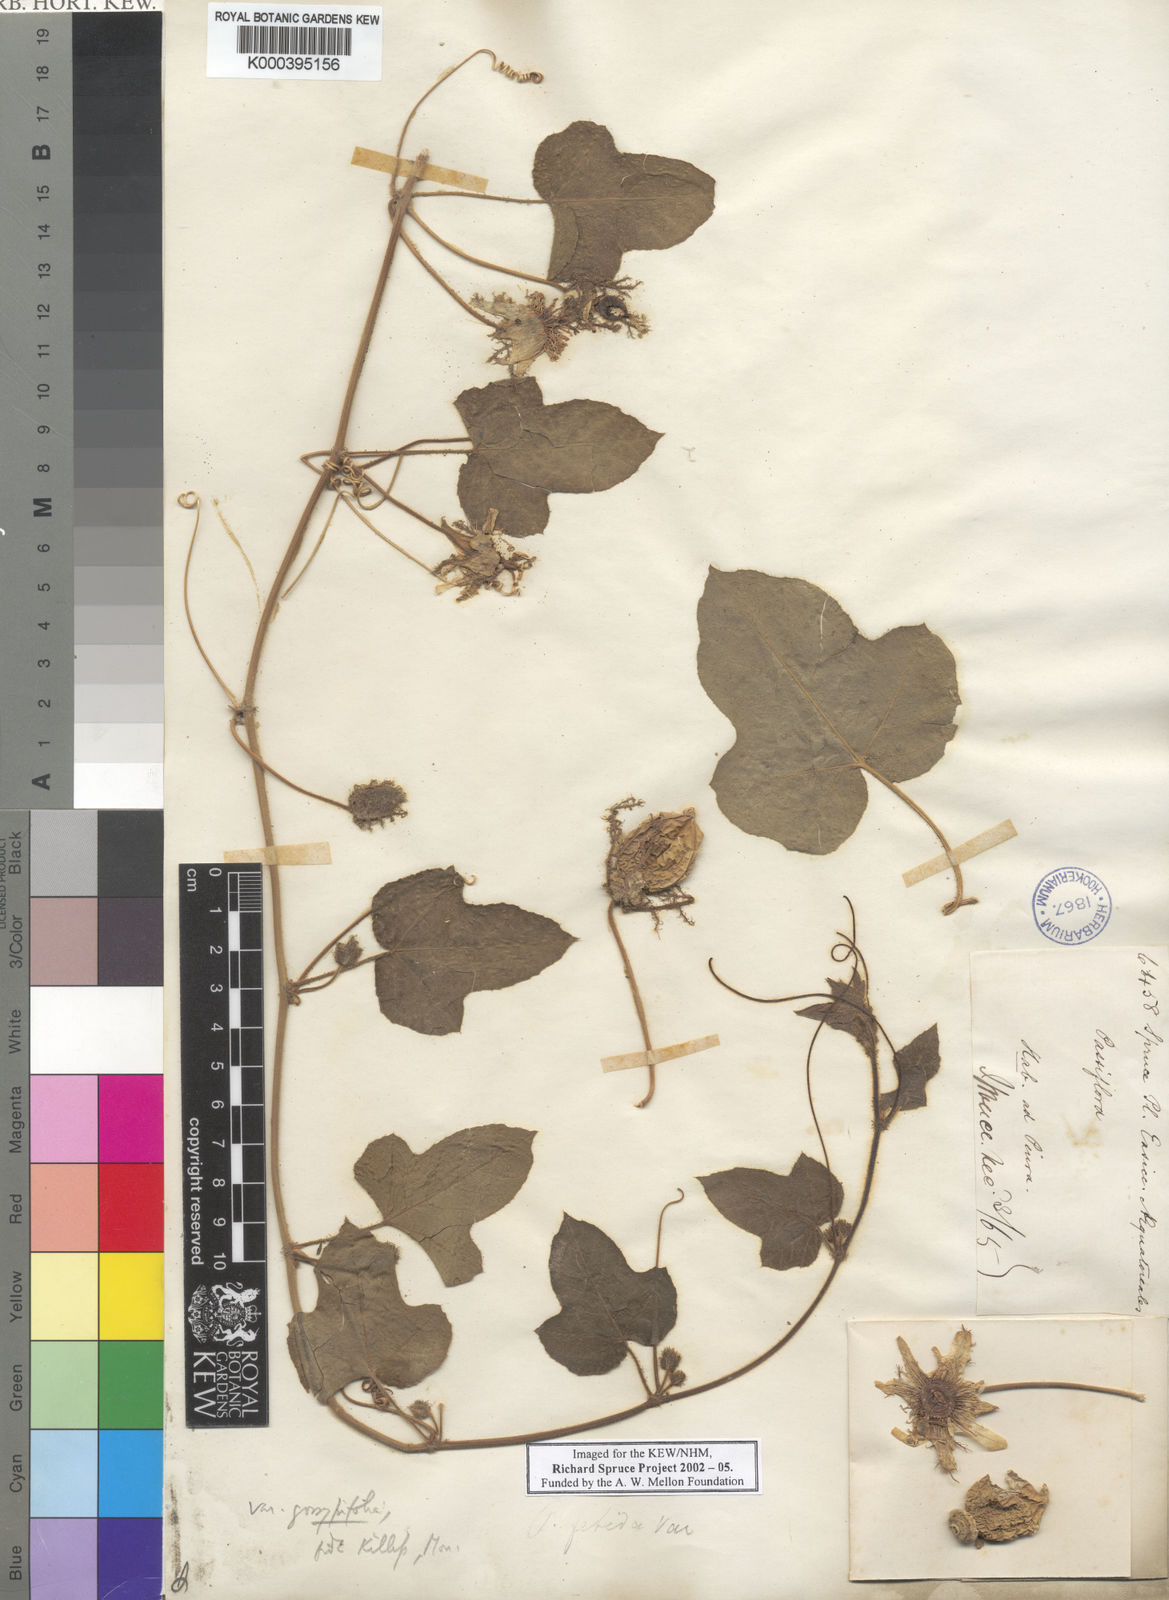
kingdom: Plantae
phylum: Tracheophyta
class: Magnoliopsida
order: Malpighiales
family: Passifloraceae
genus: Passiflora
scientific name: Passiflora foetida
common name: Fetid passionflower
